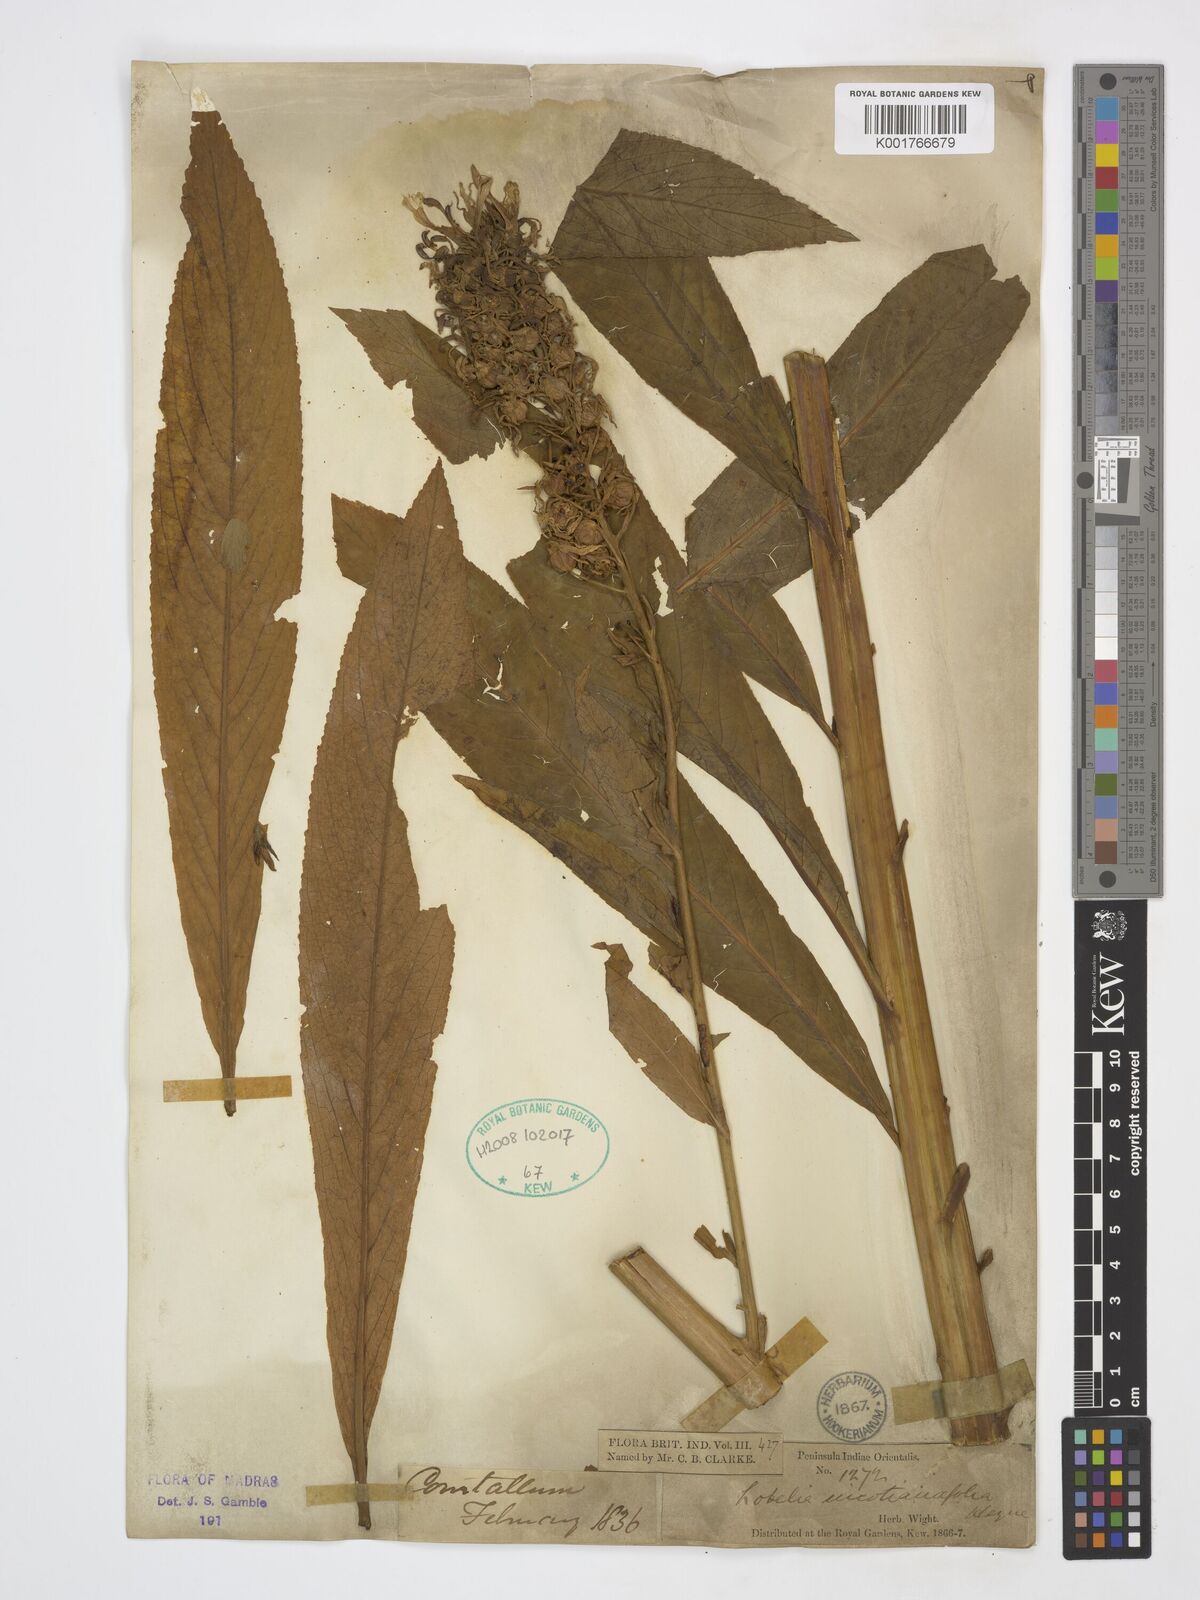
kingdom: Plantae
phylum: Tracheophyta
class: Magnoliopsida
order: Asterales
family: Campanulaceae
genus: Lobelia
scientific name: Lobelia nicotianifolia
